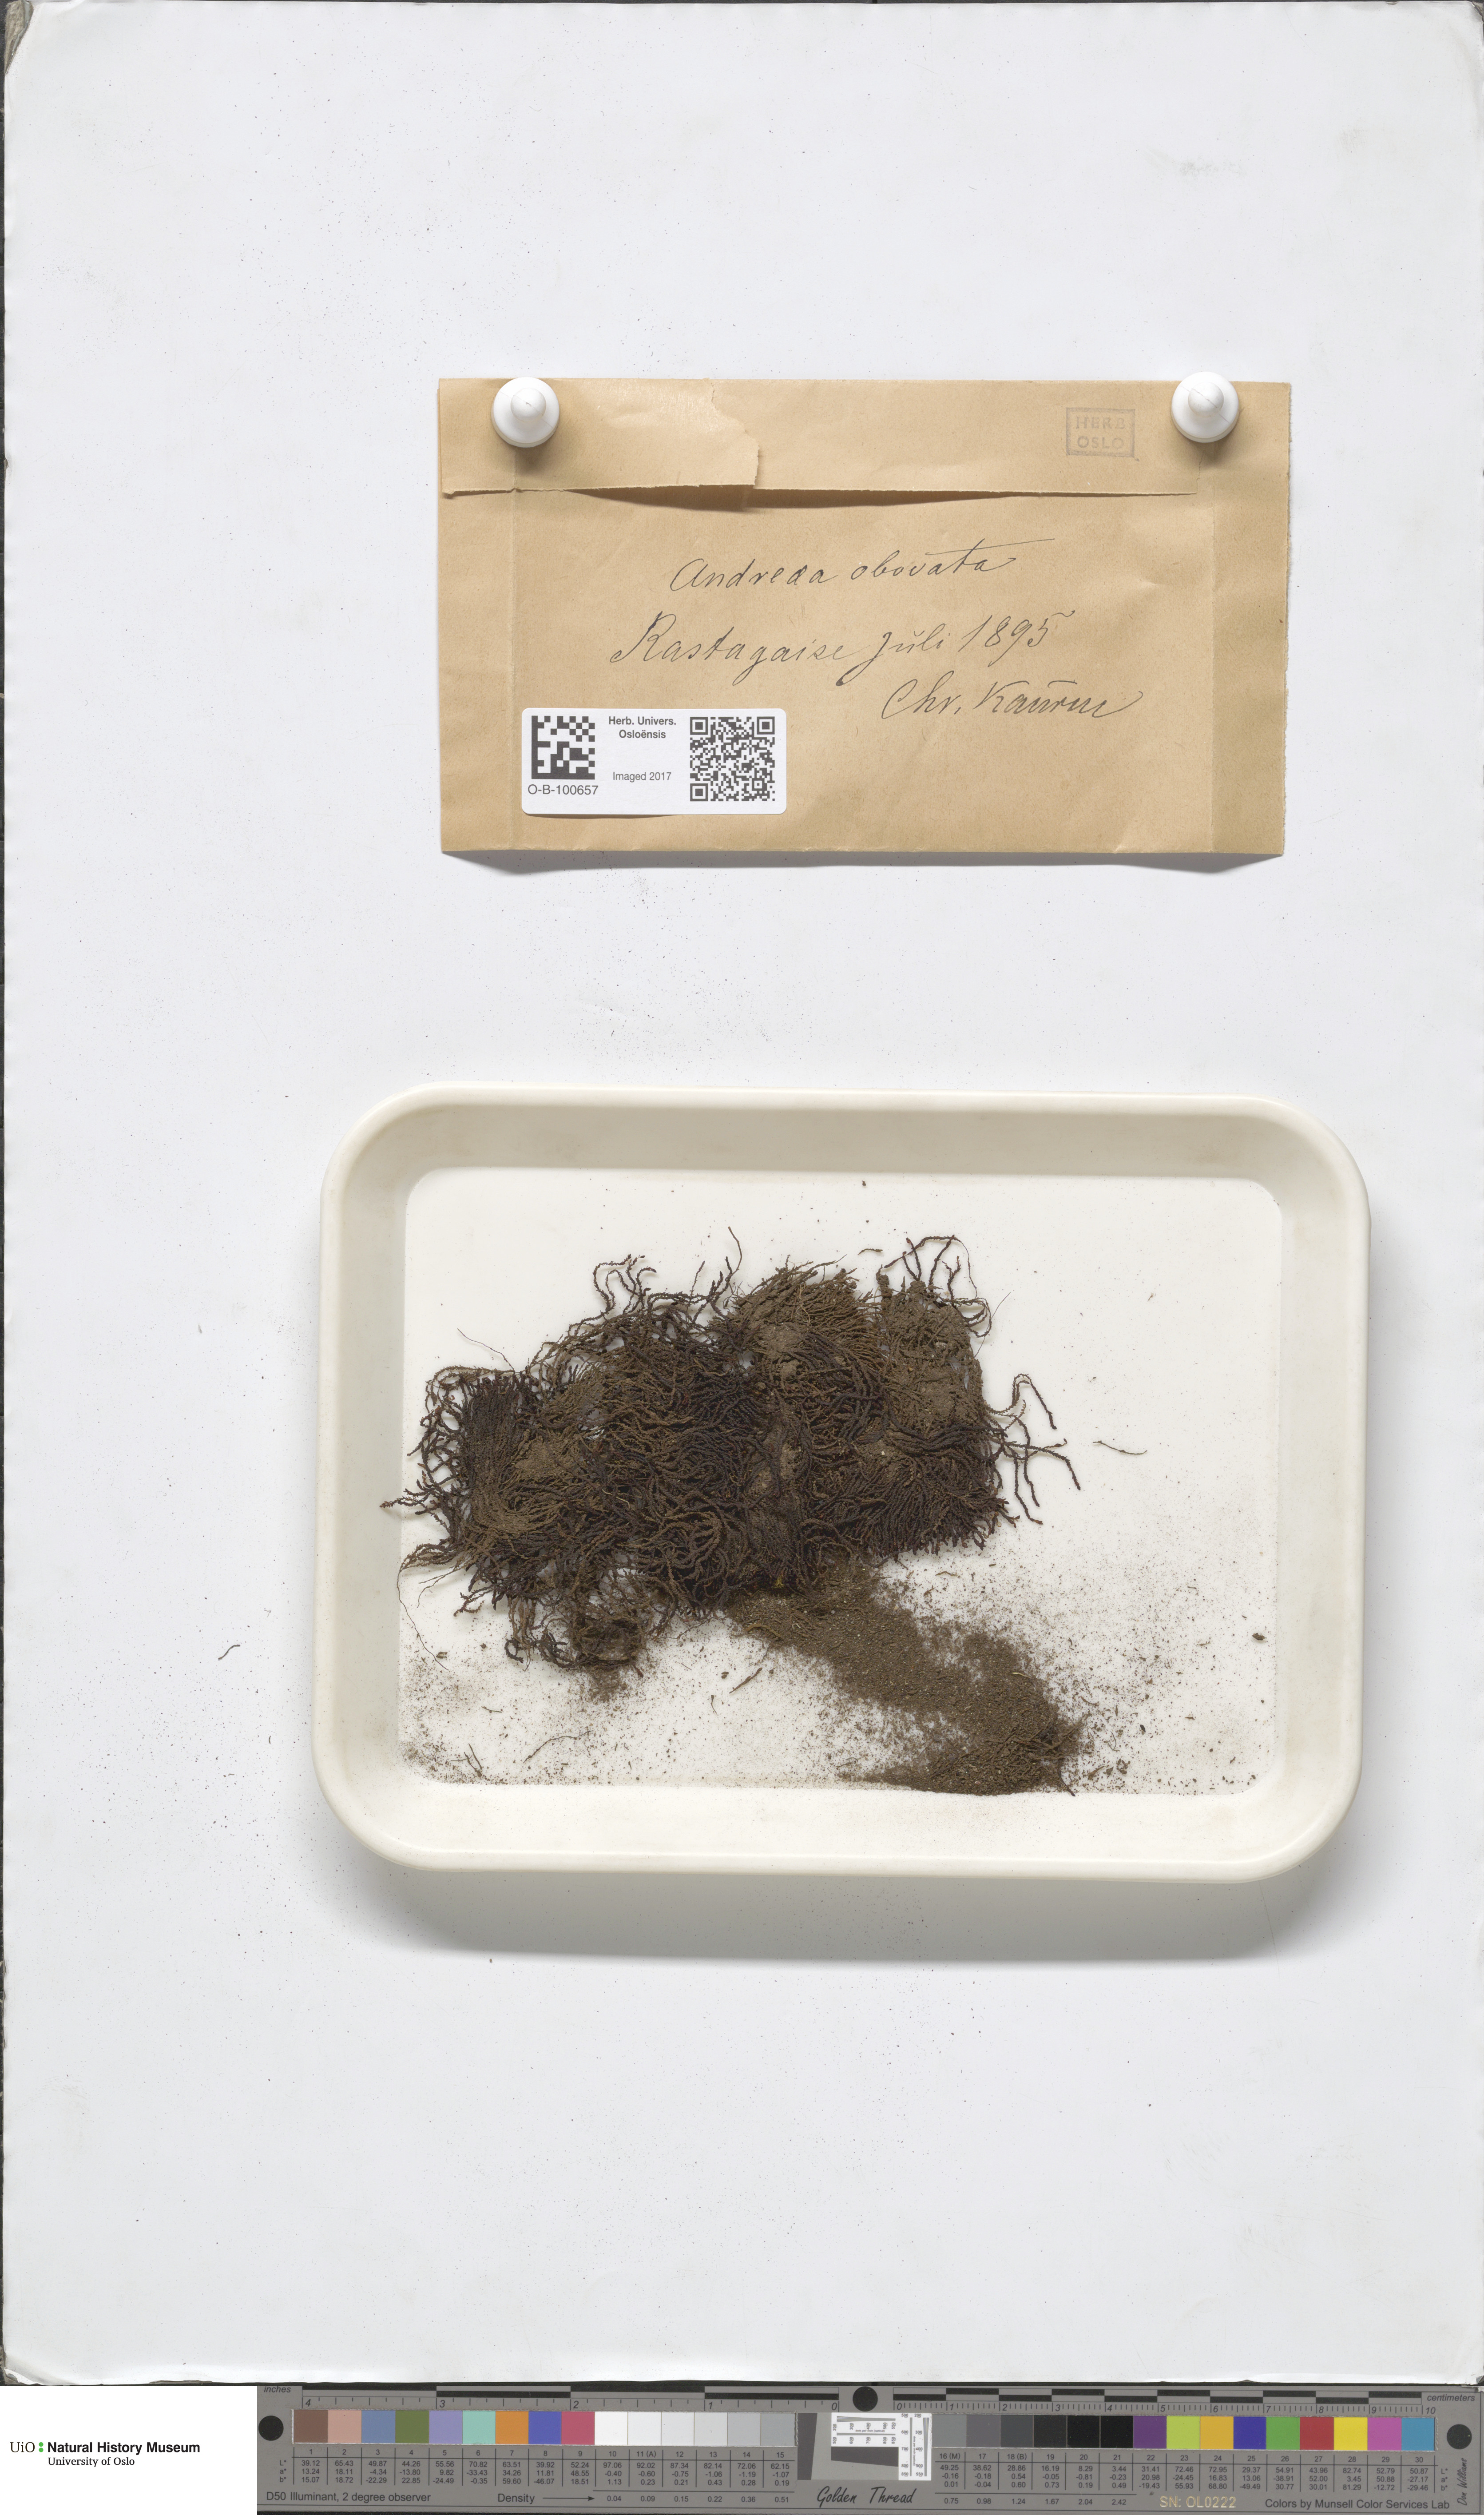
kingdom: Plantae
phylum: Bryophyta
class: Andreaeopsida
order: Andreaeales
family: Andreaeaceae
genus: Andreaea
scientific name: Andreaea alpina
